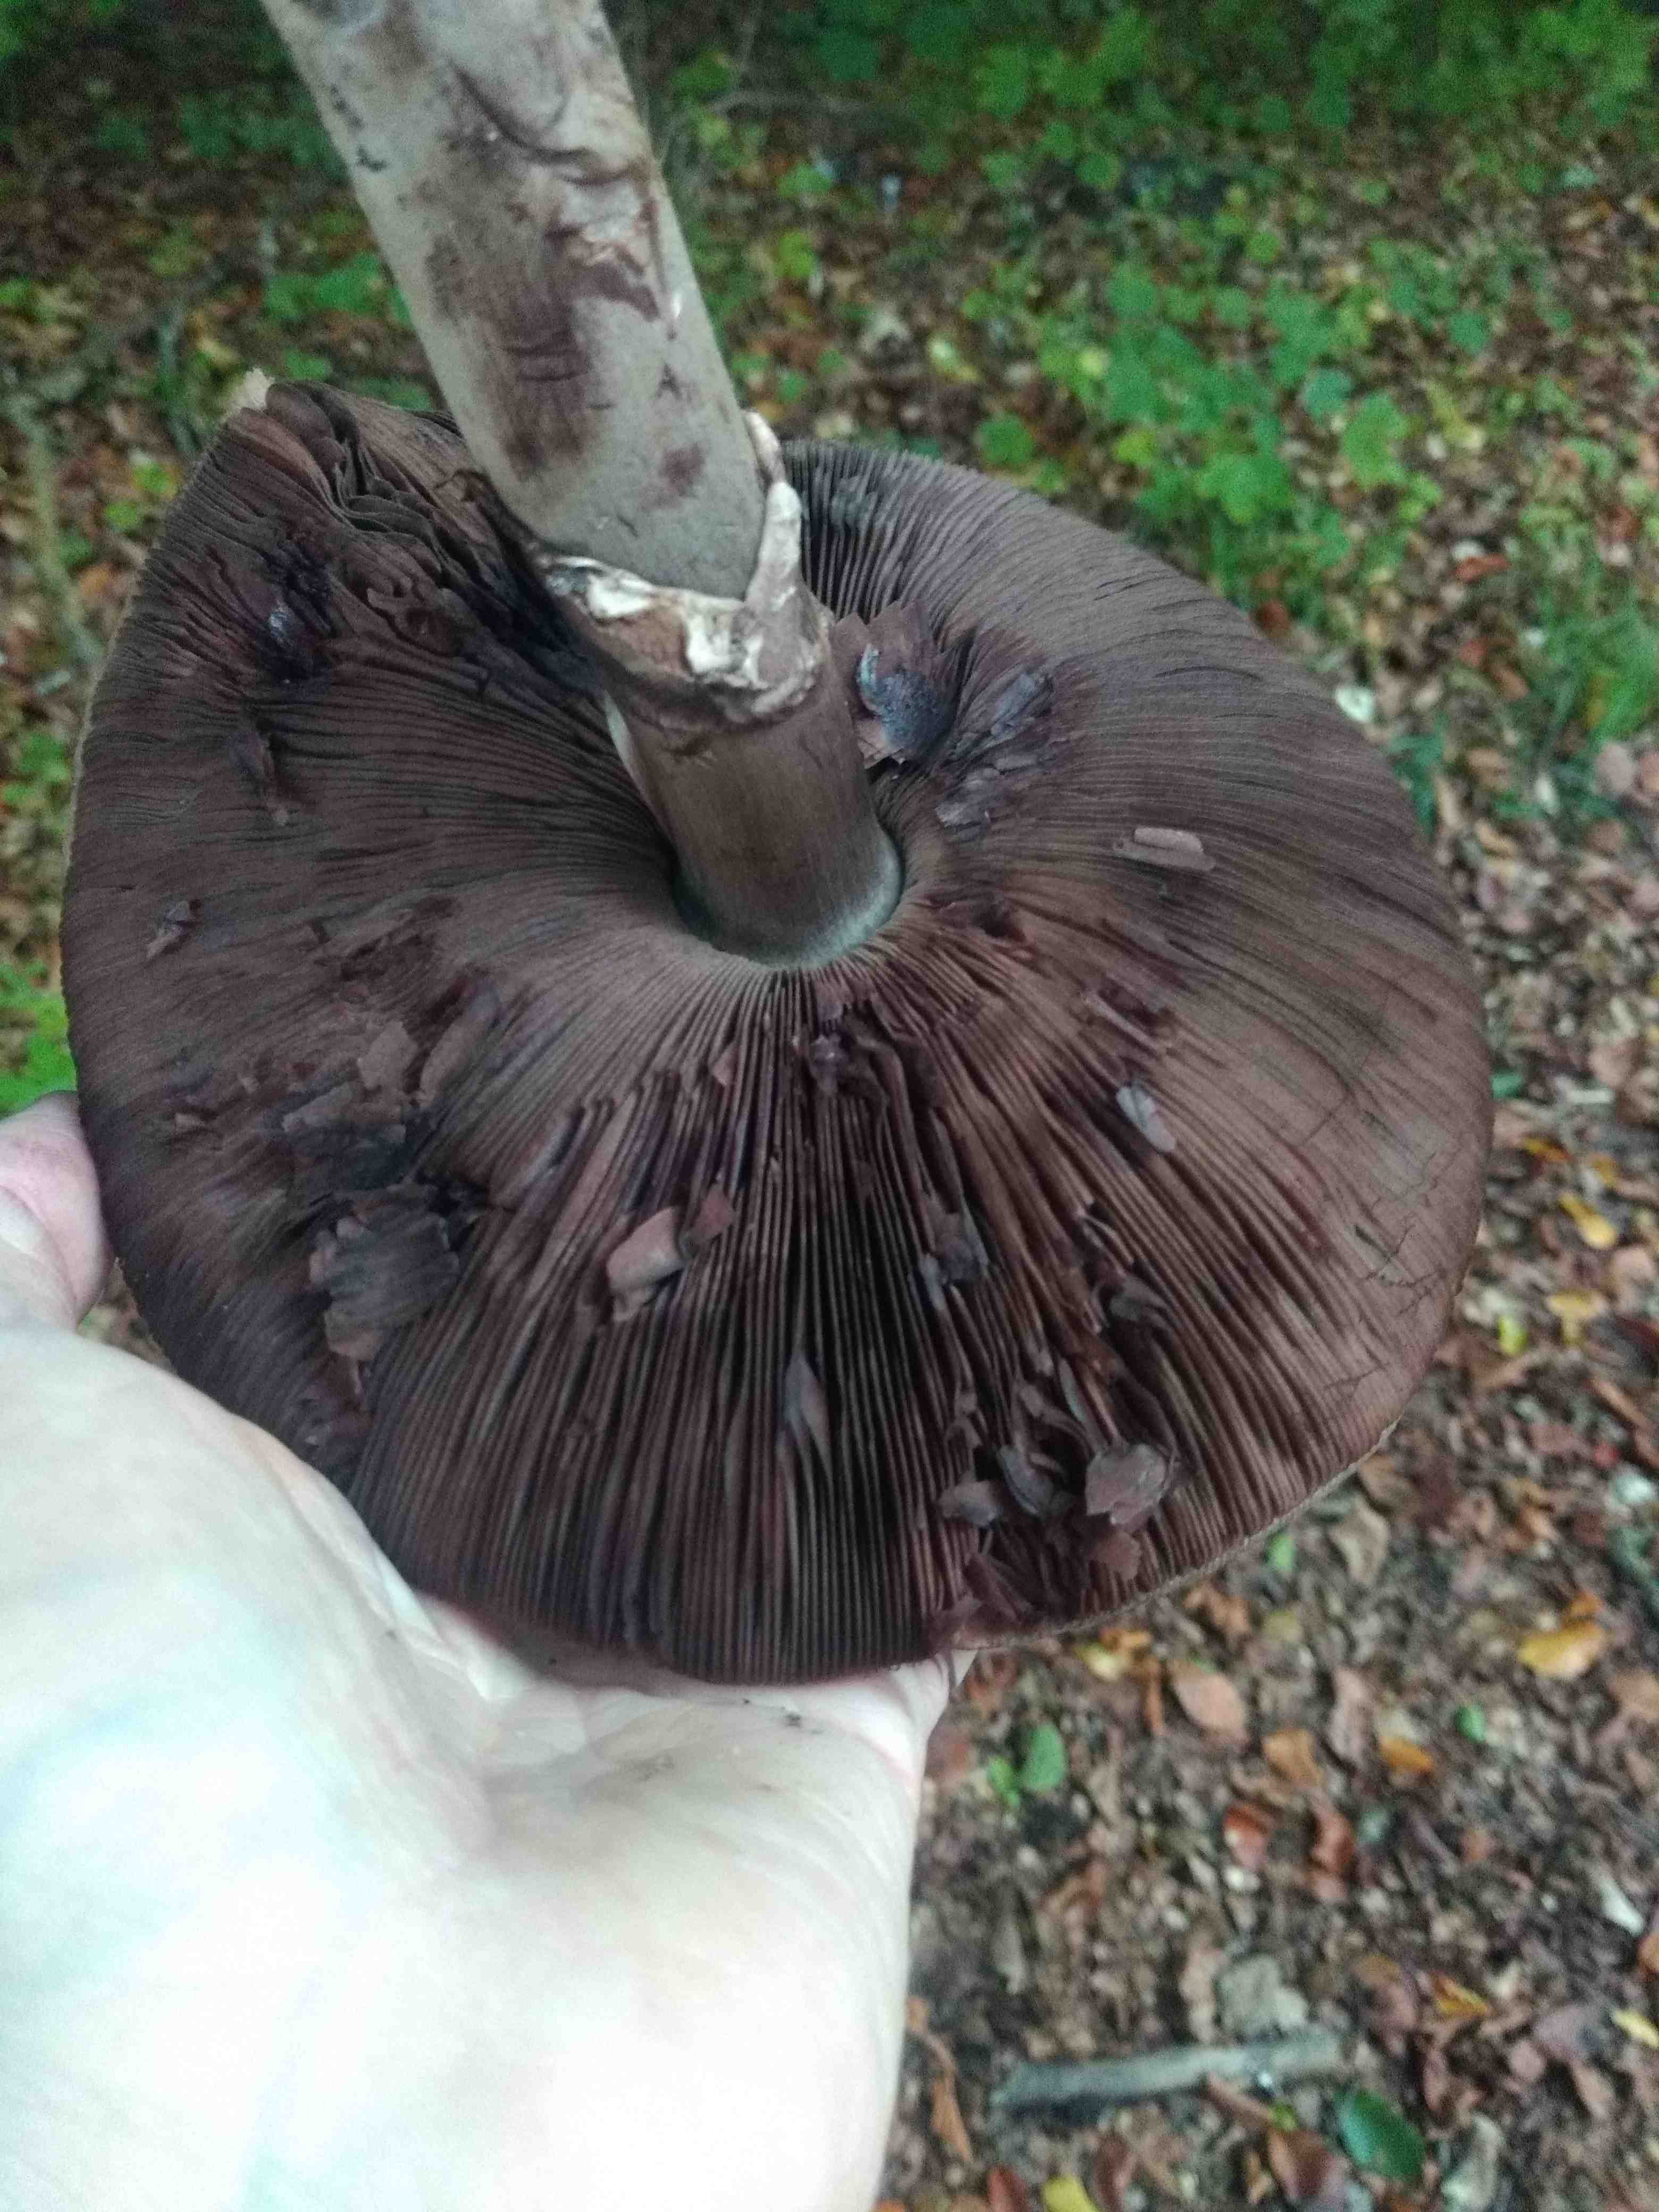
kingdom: Fungi
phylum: Basidiomycota
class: Agaricomycetes
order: Agaricales
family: Agaricaceae
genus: Agaricus
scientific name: Agaricus
